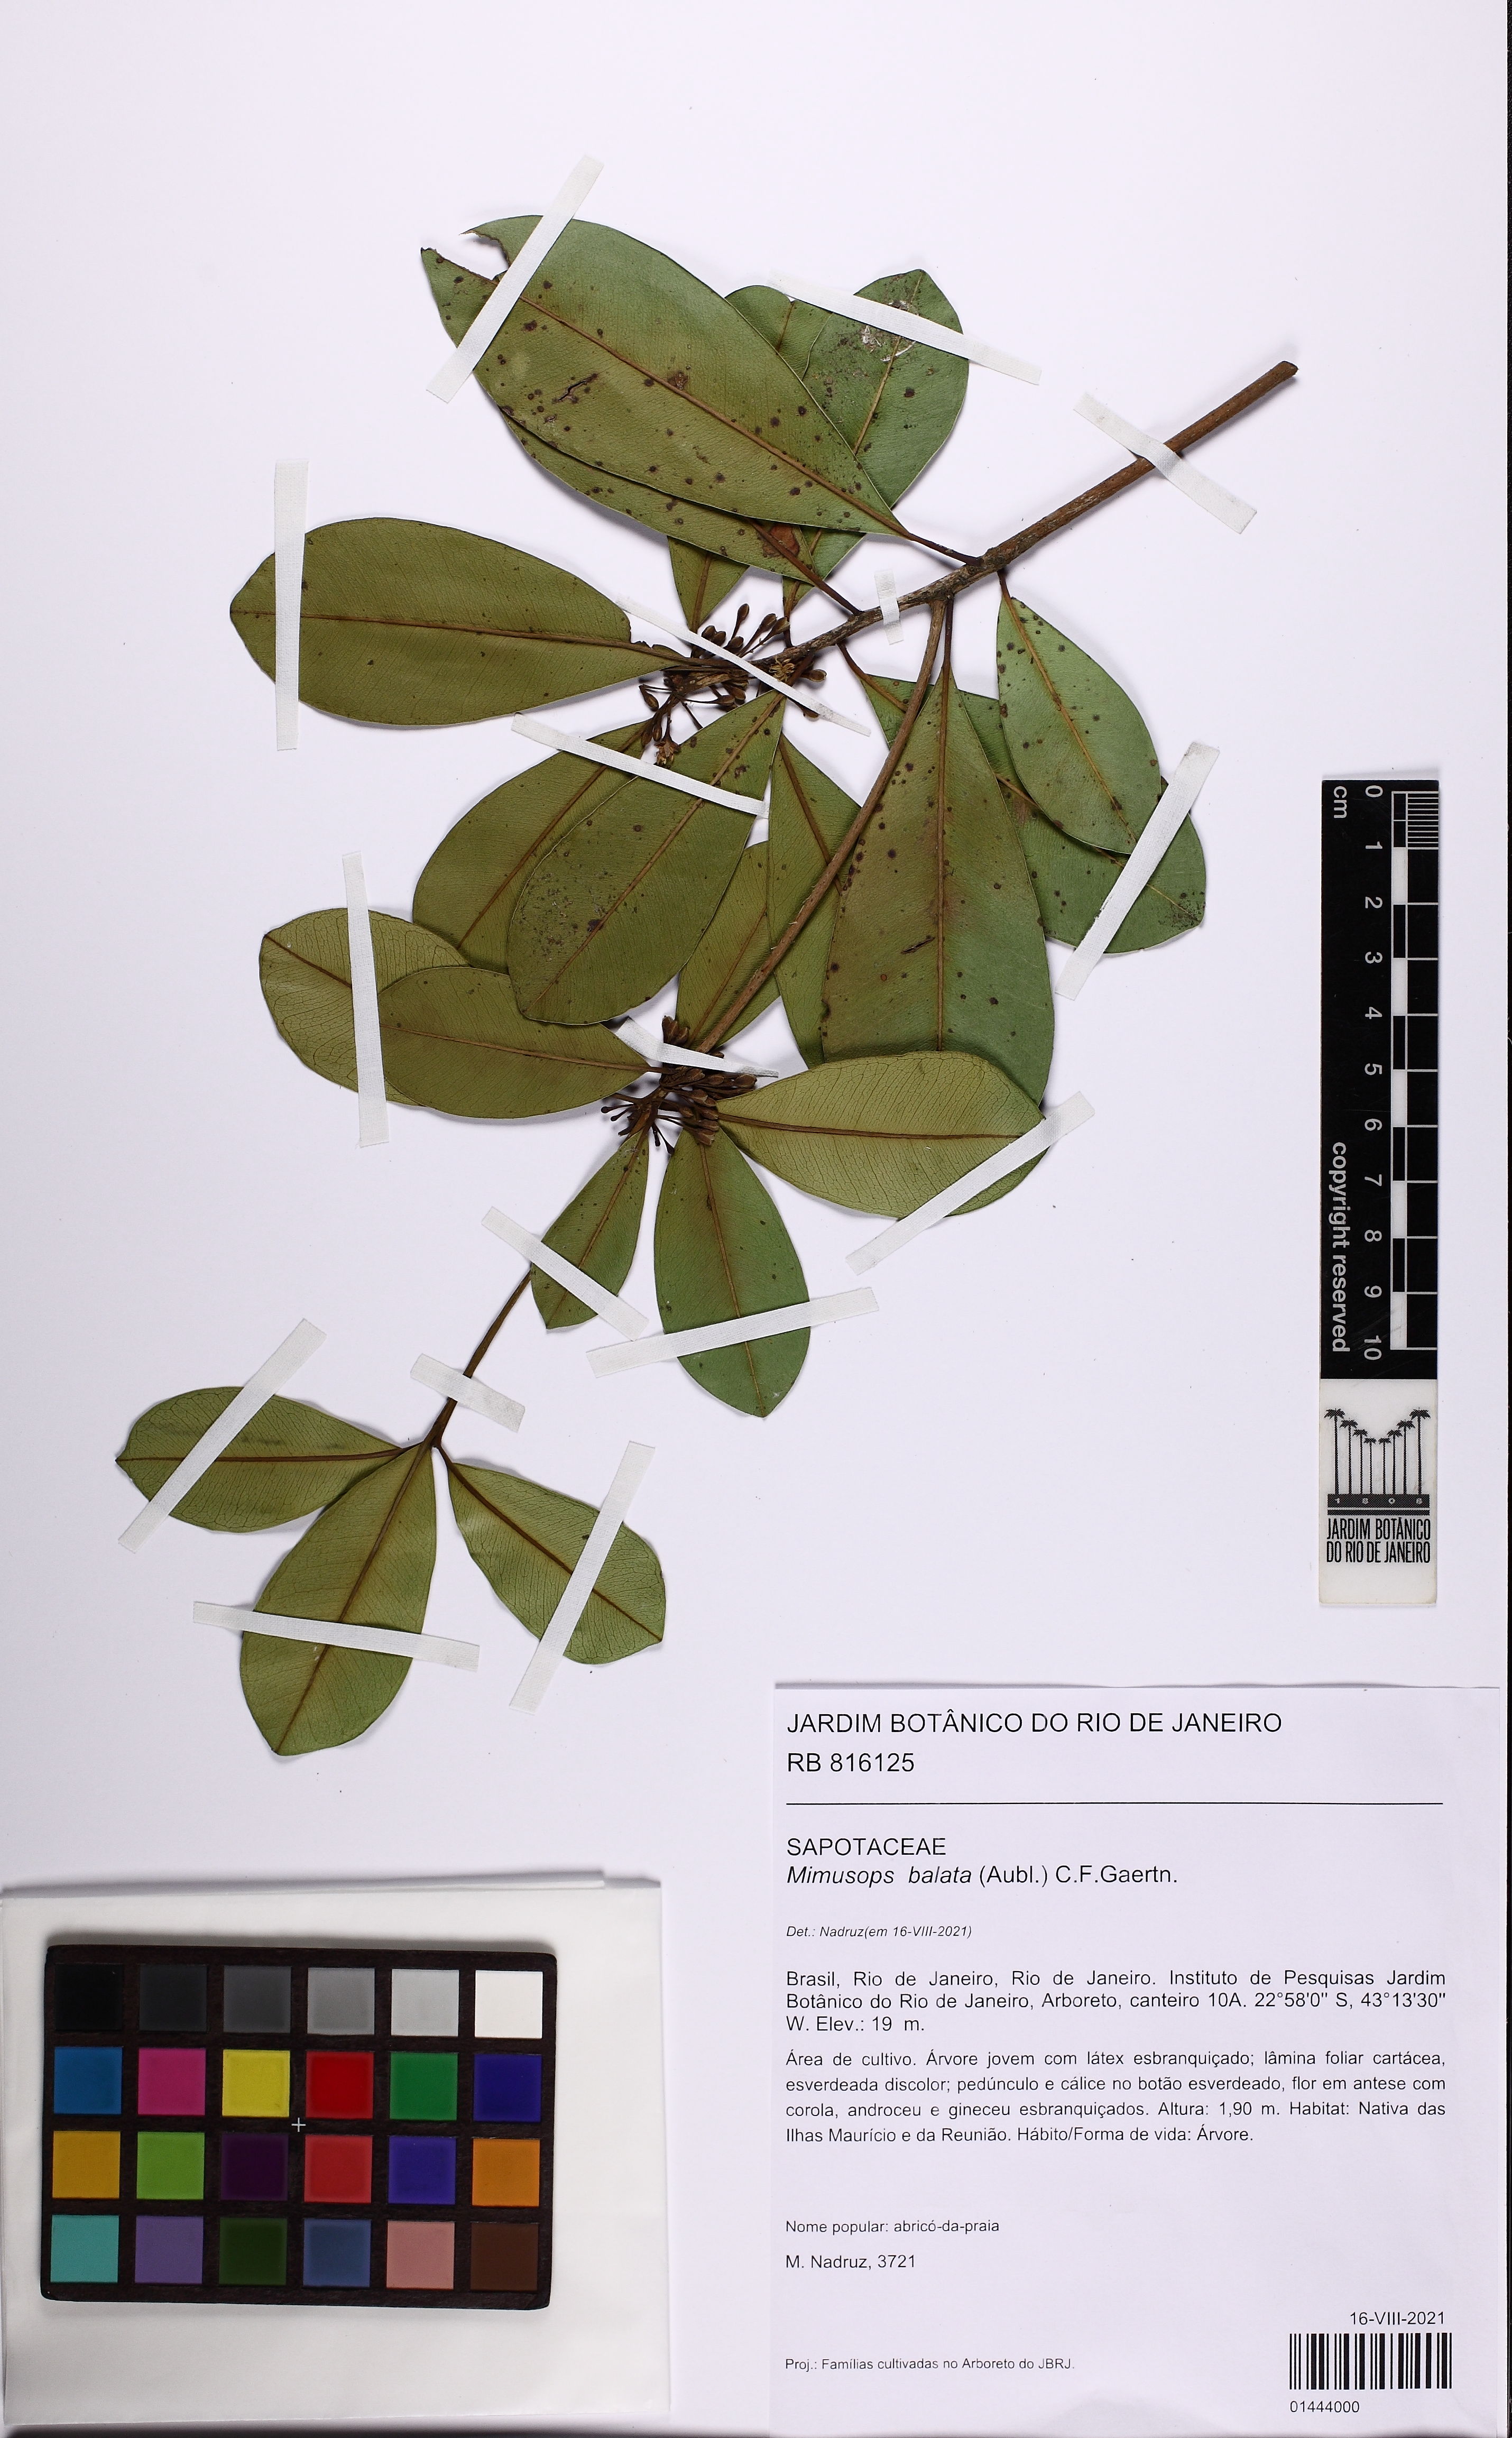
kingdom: Plantae
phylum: Tracheophyta
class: Magnoliopsida
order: Ericales
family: Sapotaceae
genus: Mimusops
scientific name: Mimusops balata
